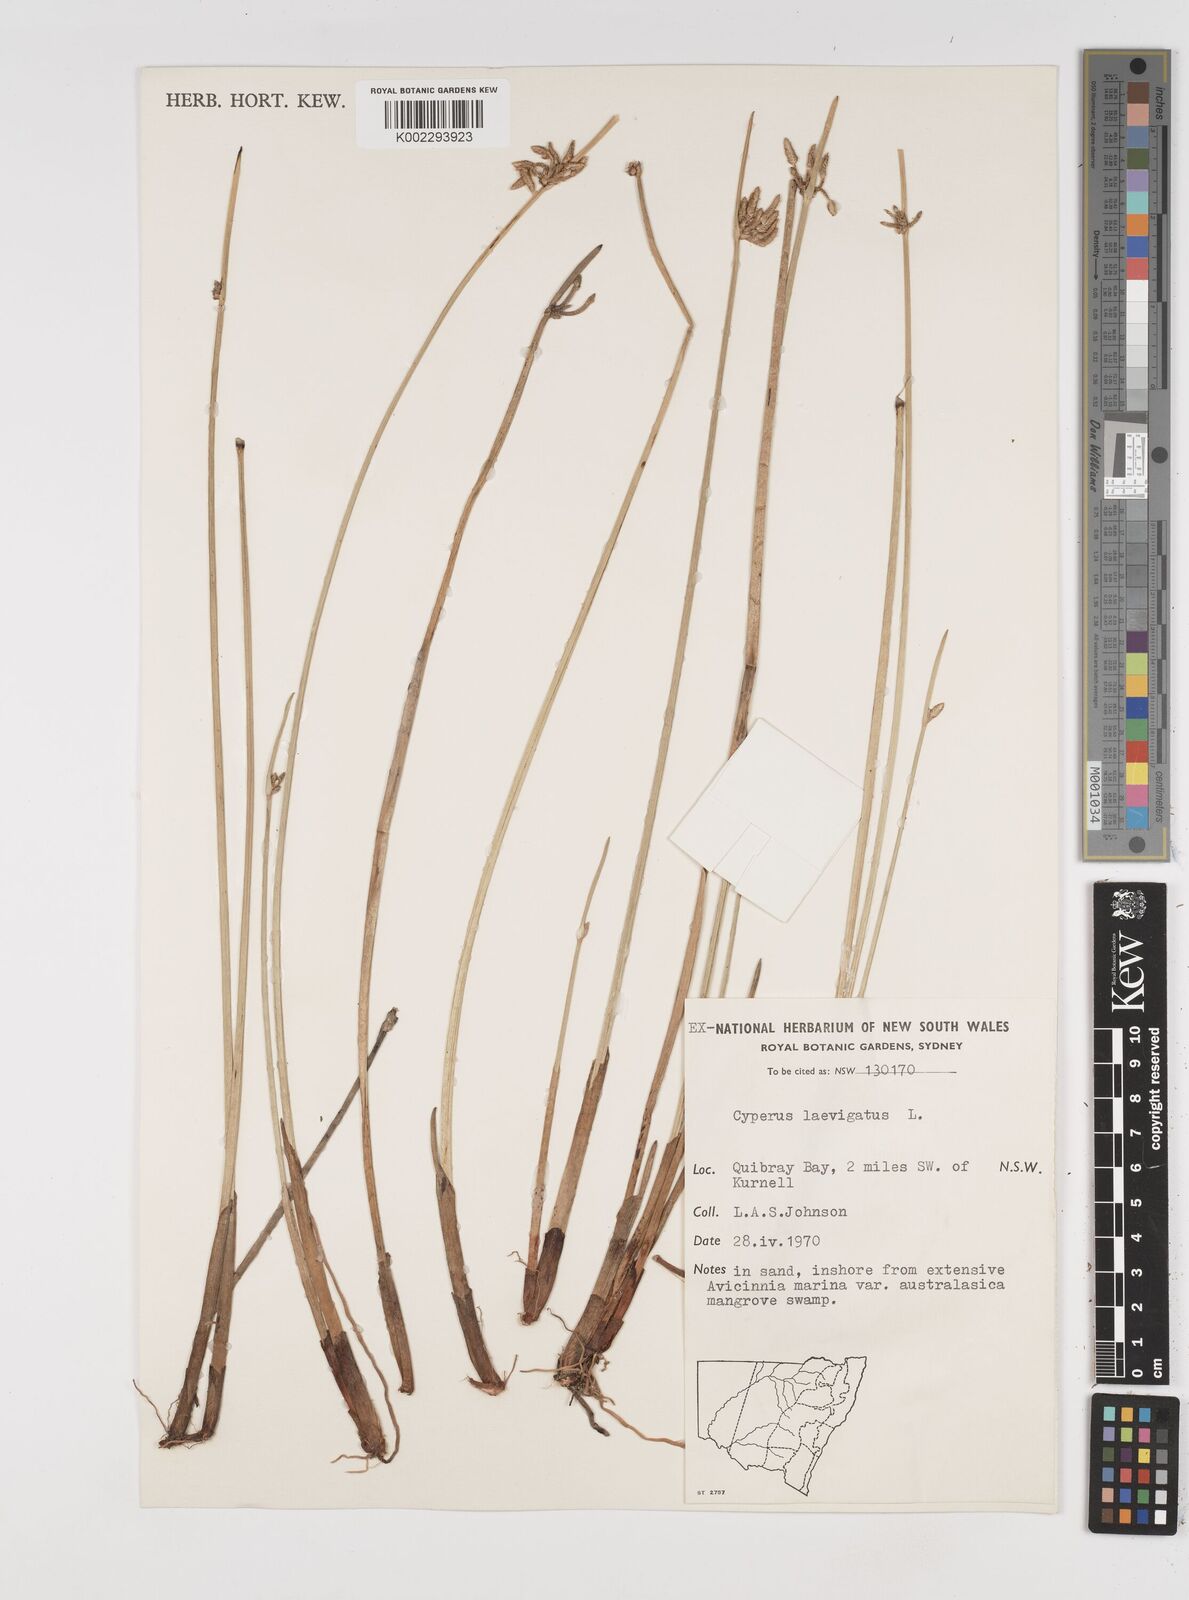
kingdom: Plantae
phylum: Tracheophyta
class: Liliopsida
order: Poales
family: Cyperaceae
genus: Cyperus
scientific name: Cyperus laevigatus
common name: Smooth flat sedge
